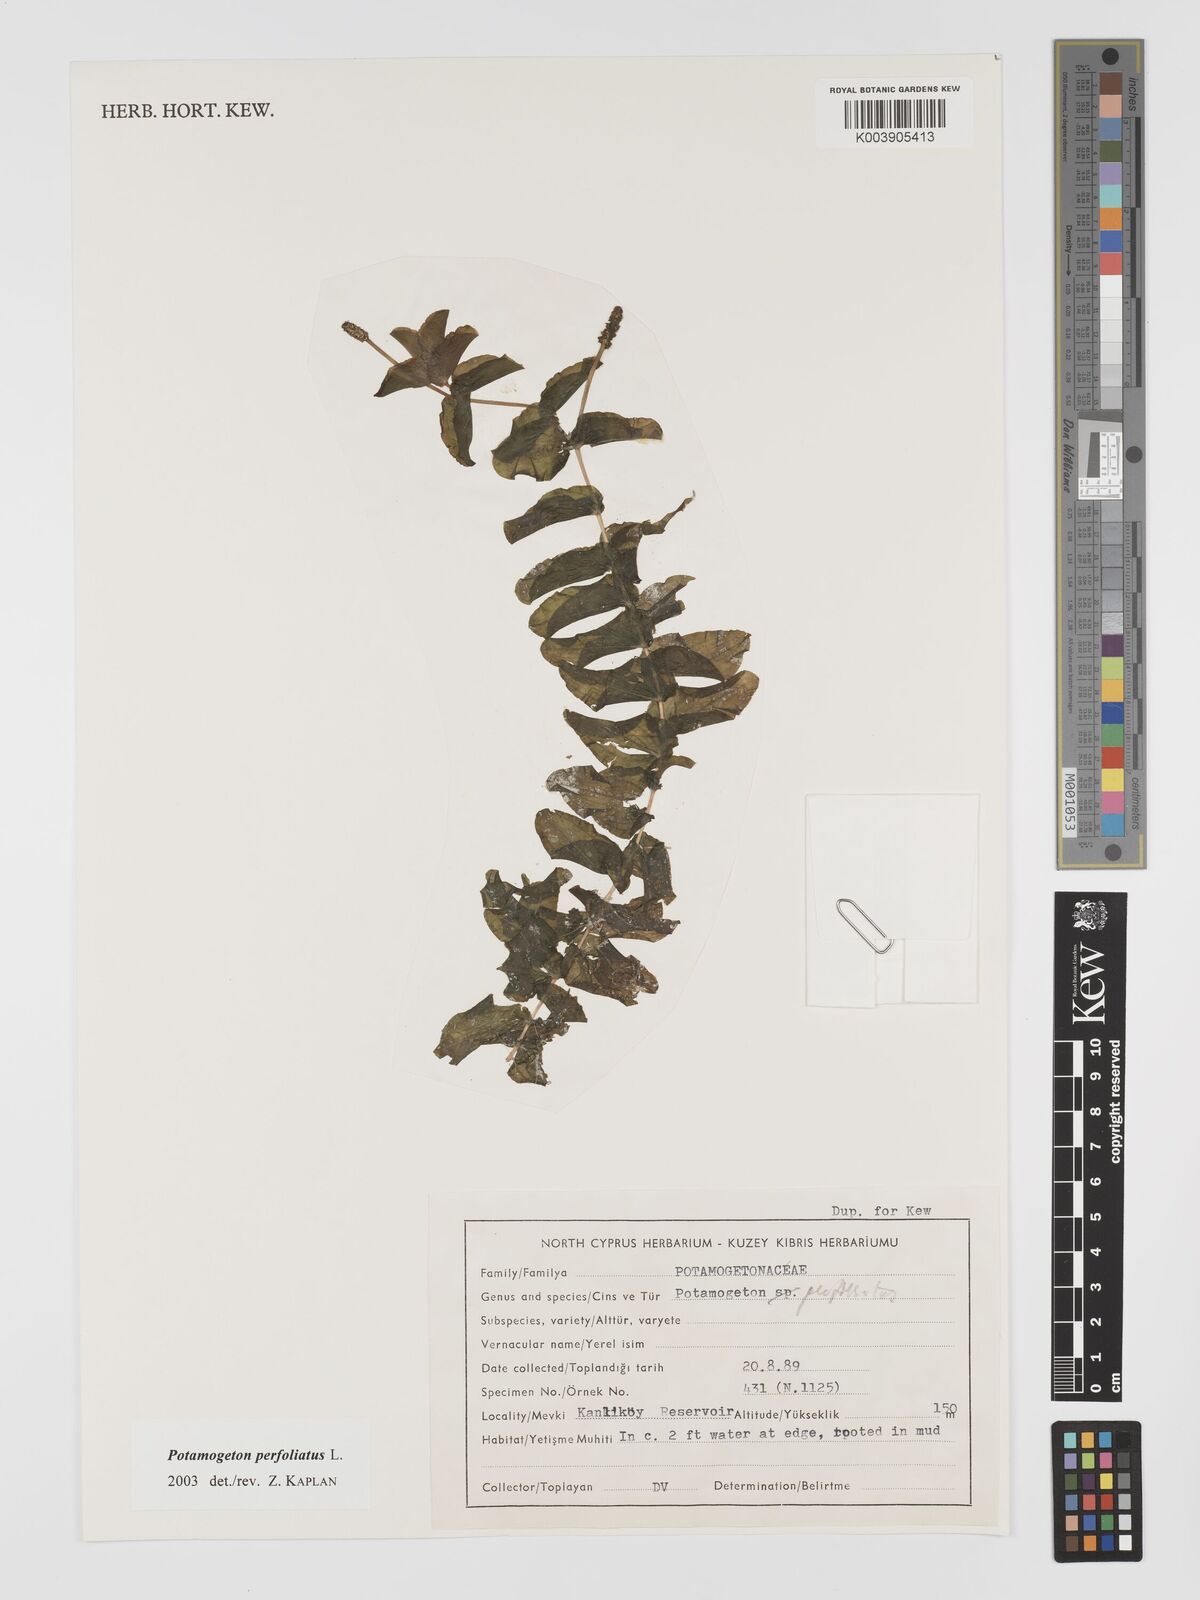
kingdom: Plantae
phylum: Tracheophyta
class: Liliopsida
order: Alismatales
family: Potamogetonaceae
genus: Potamogeton
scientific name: Potamogeton perfoliatus
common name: Perfoliate pondweed
